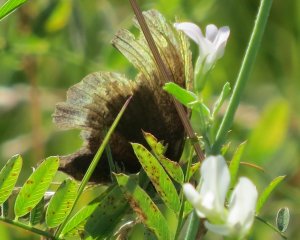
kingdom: Animalia
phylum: Arthropoda
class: Insecta
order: Lepidoptera
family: Nymphalidae
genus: Nymphalis
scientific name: Nymphalis antiopa
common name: Mourning Cloak
